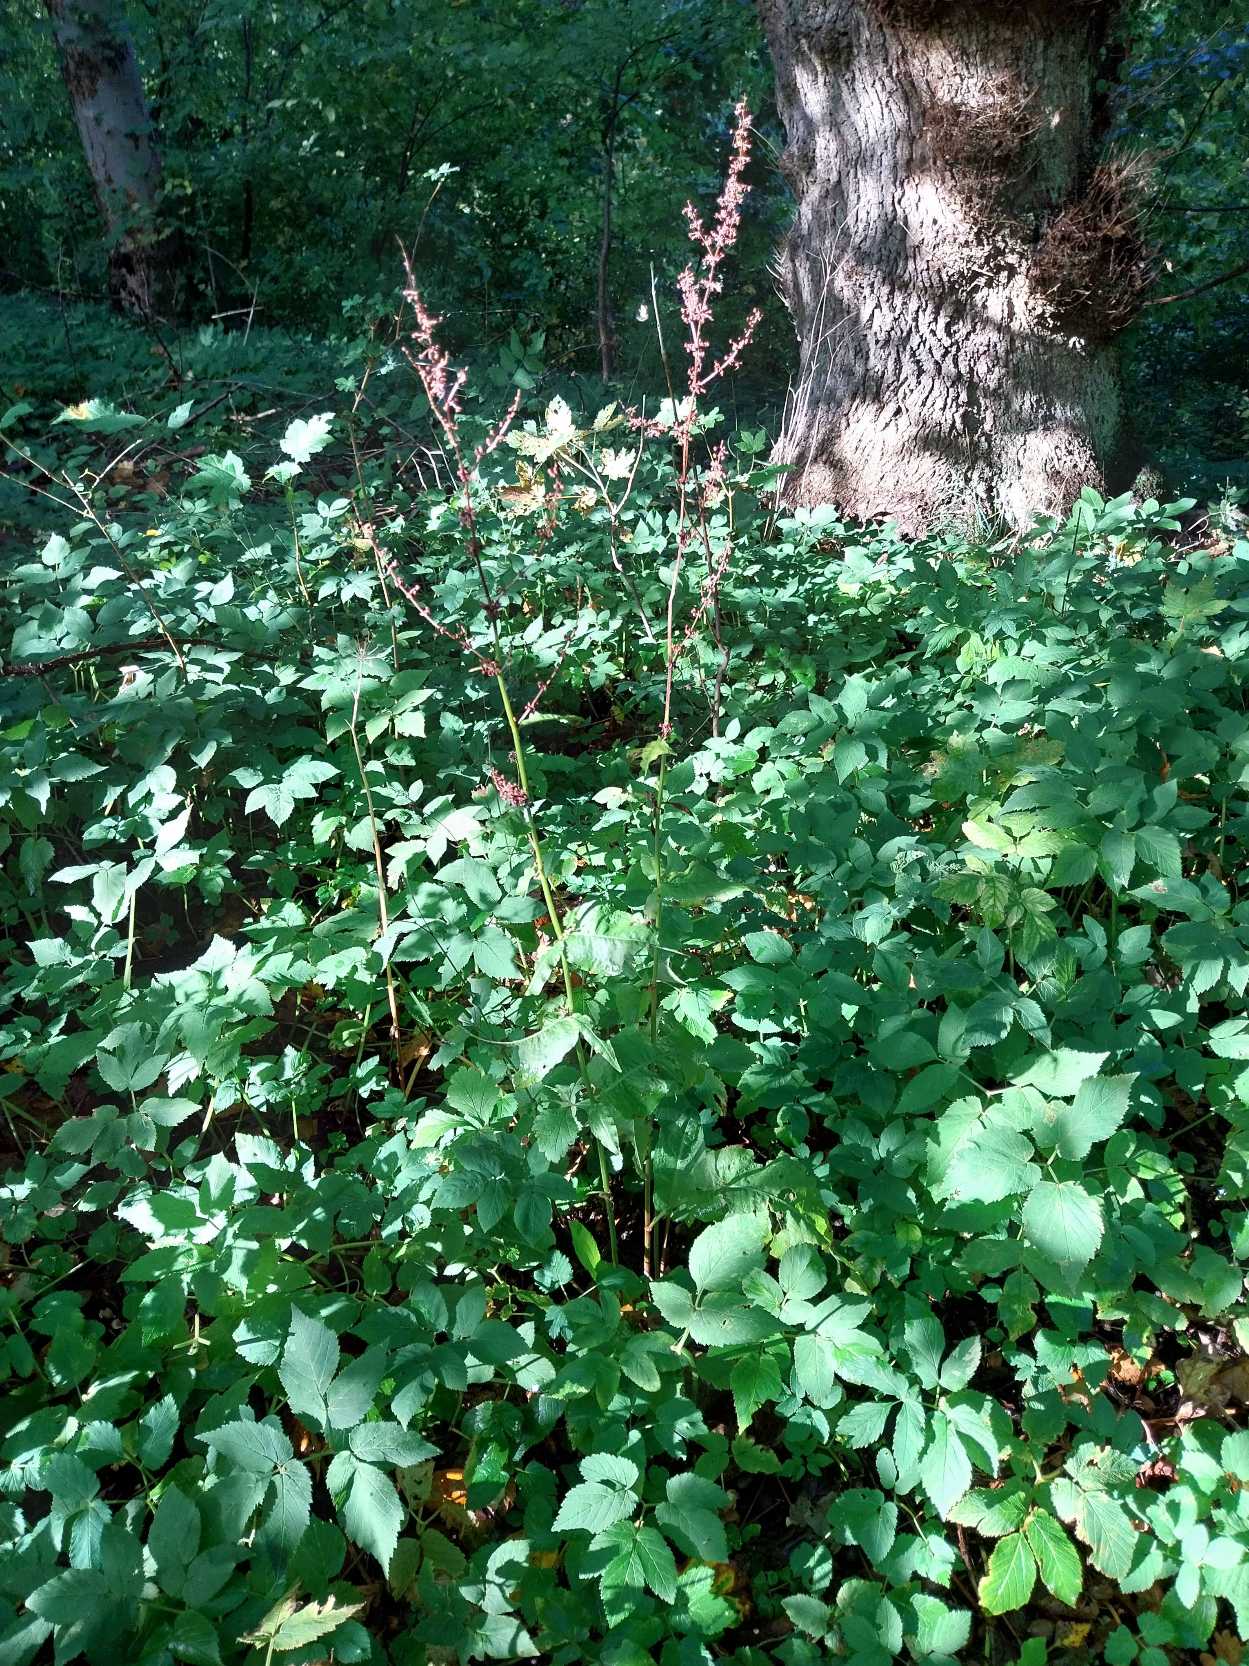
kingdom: Plantae
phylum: Tracheophyta
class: Magnoliopsida
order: Caryophyllales
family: Polygonaceae
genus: Rumex
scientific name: Rumex sanguineus
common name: Skov-skræppe
